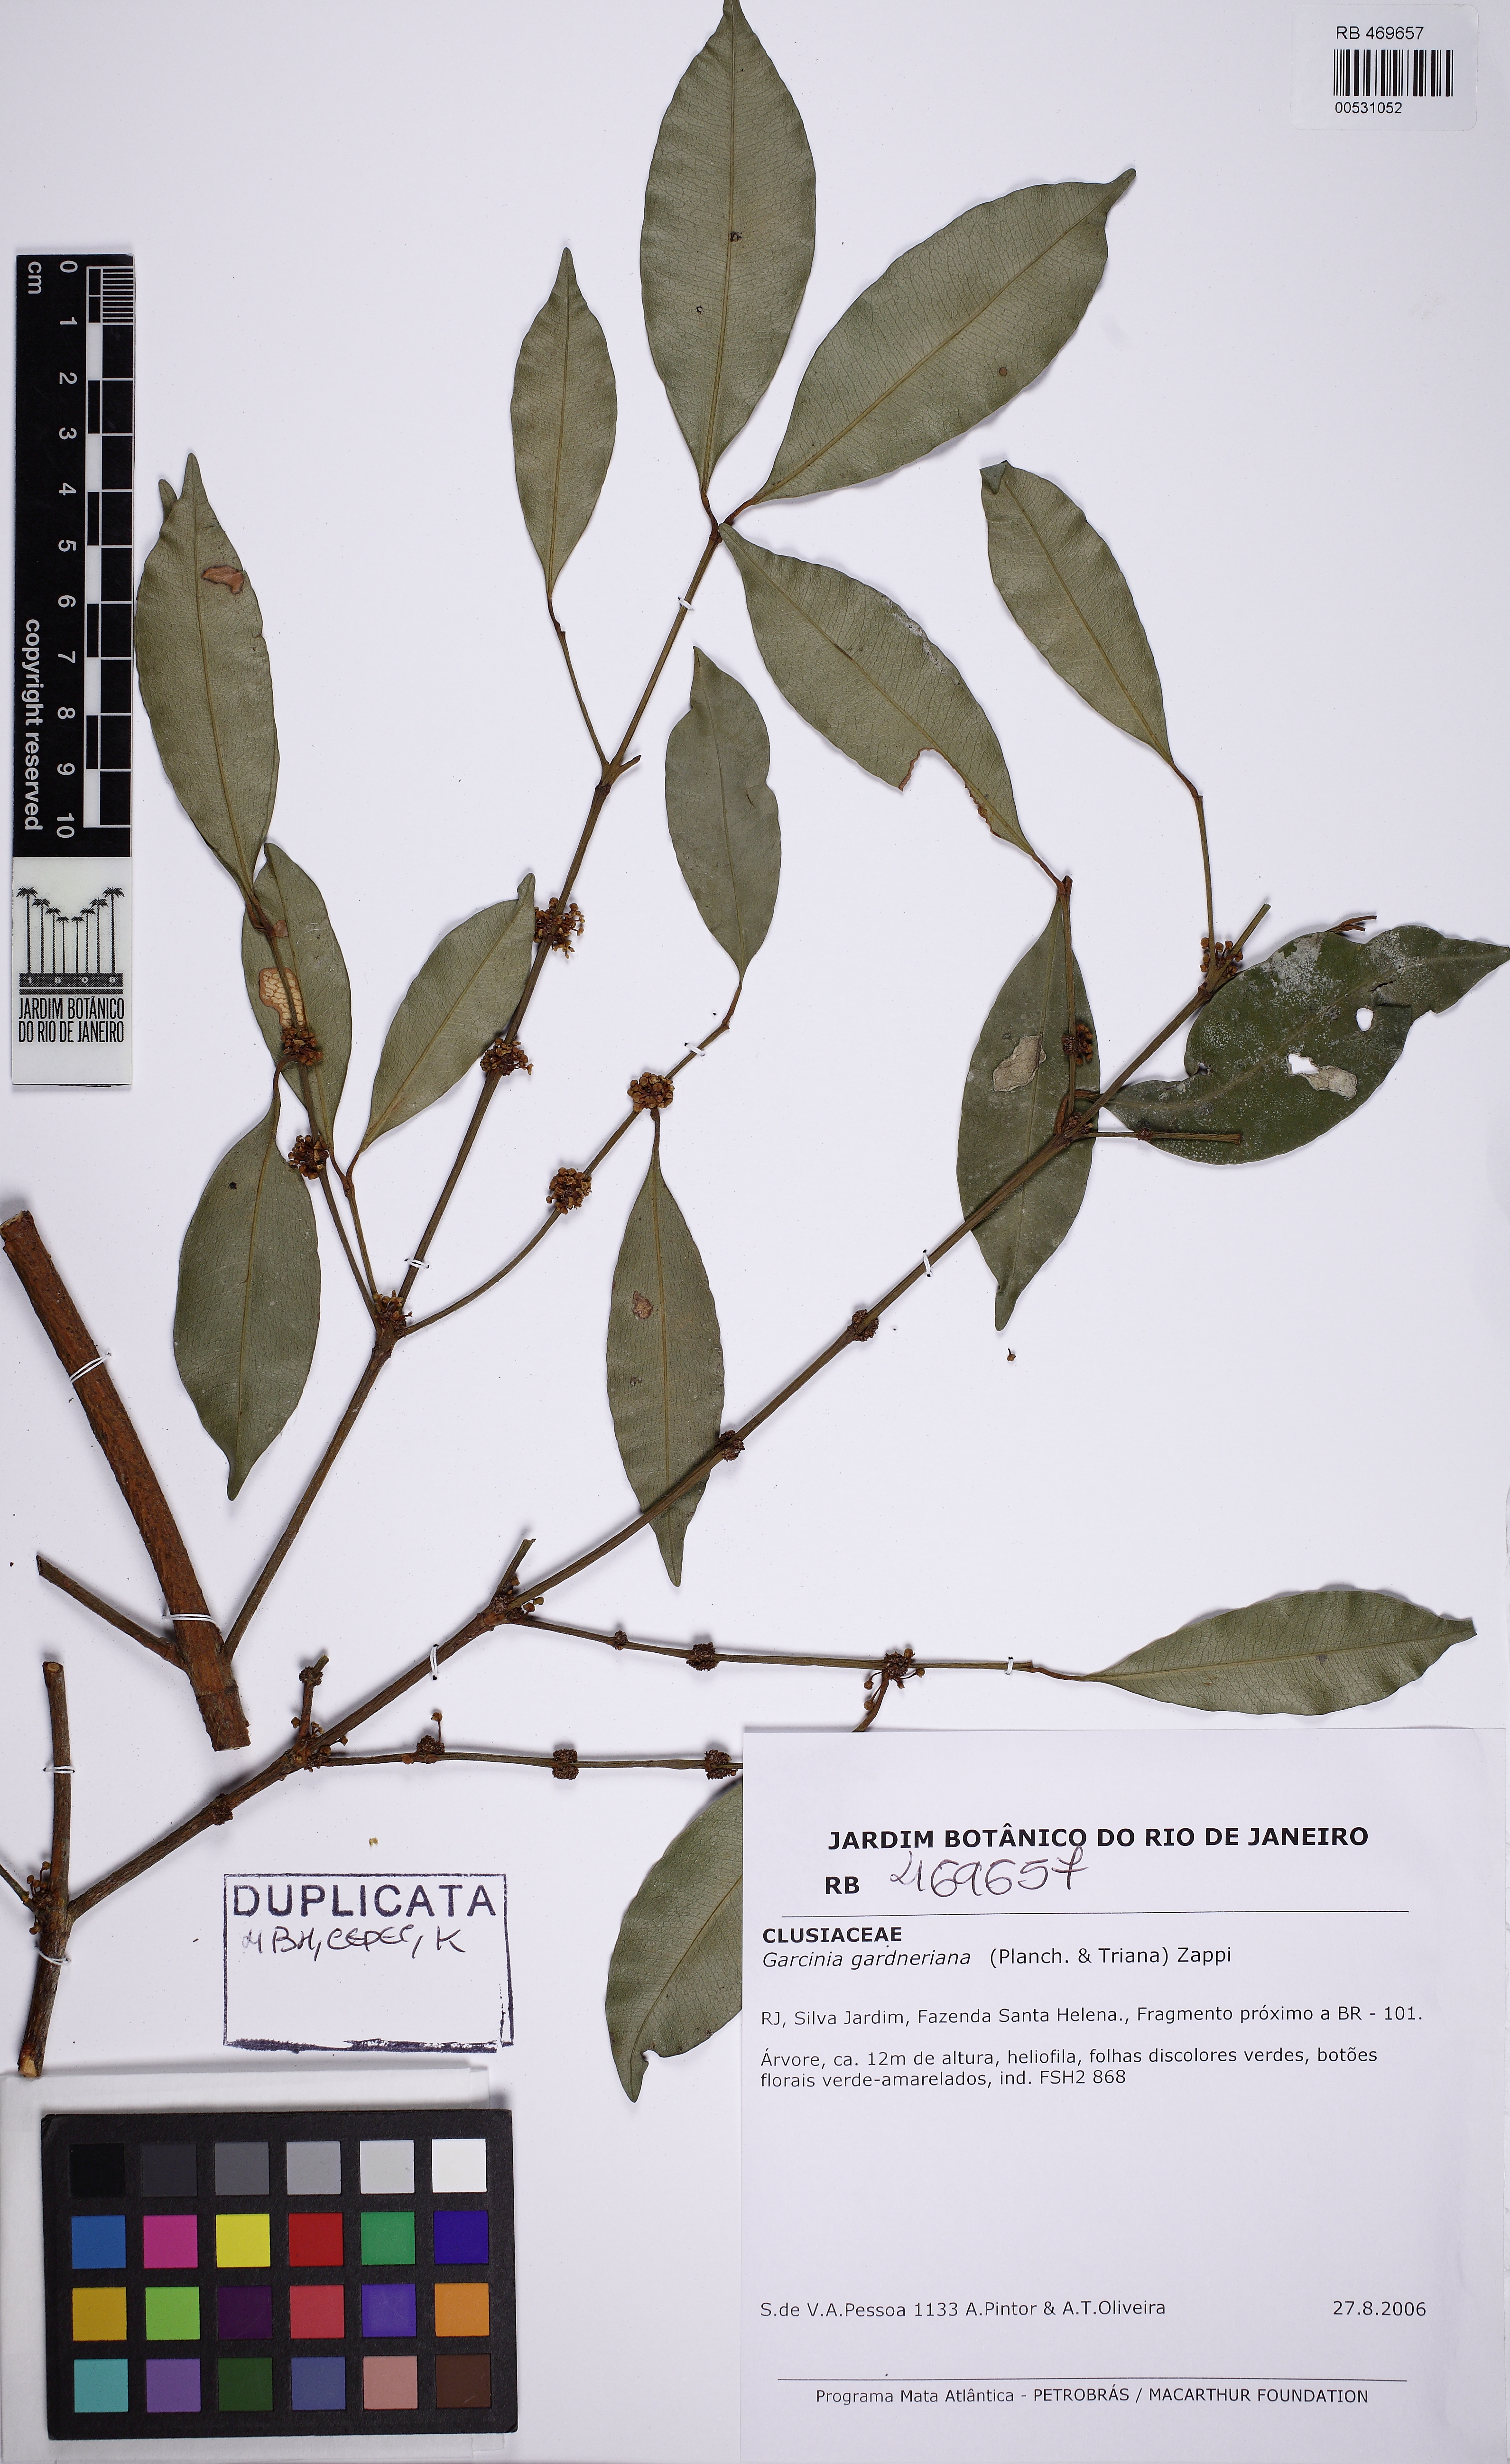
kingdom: Plantae
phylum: Tracheophyta
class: Magnoliopsida
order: Malpighiales
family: Clusiaceae
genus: Garcinia
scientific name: Garcinia gardneriana
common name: Achacha
